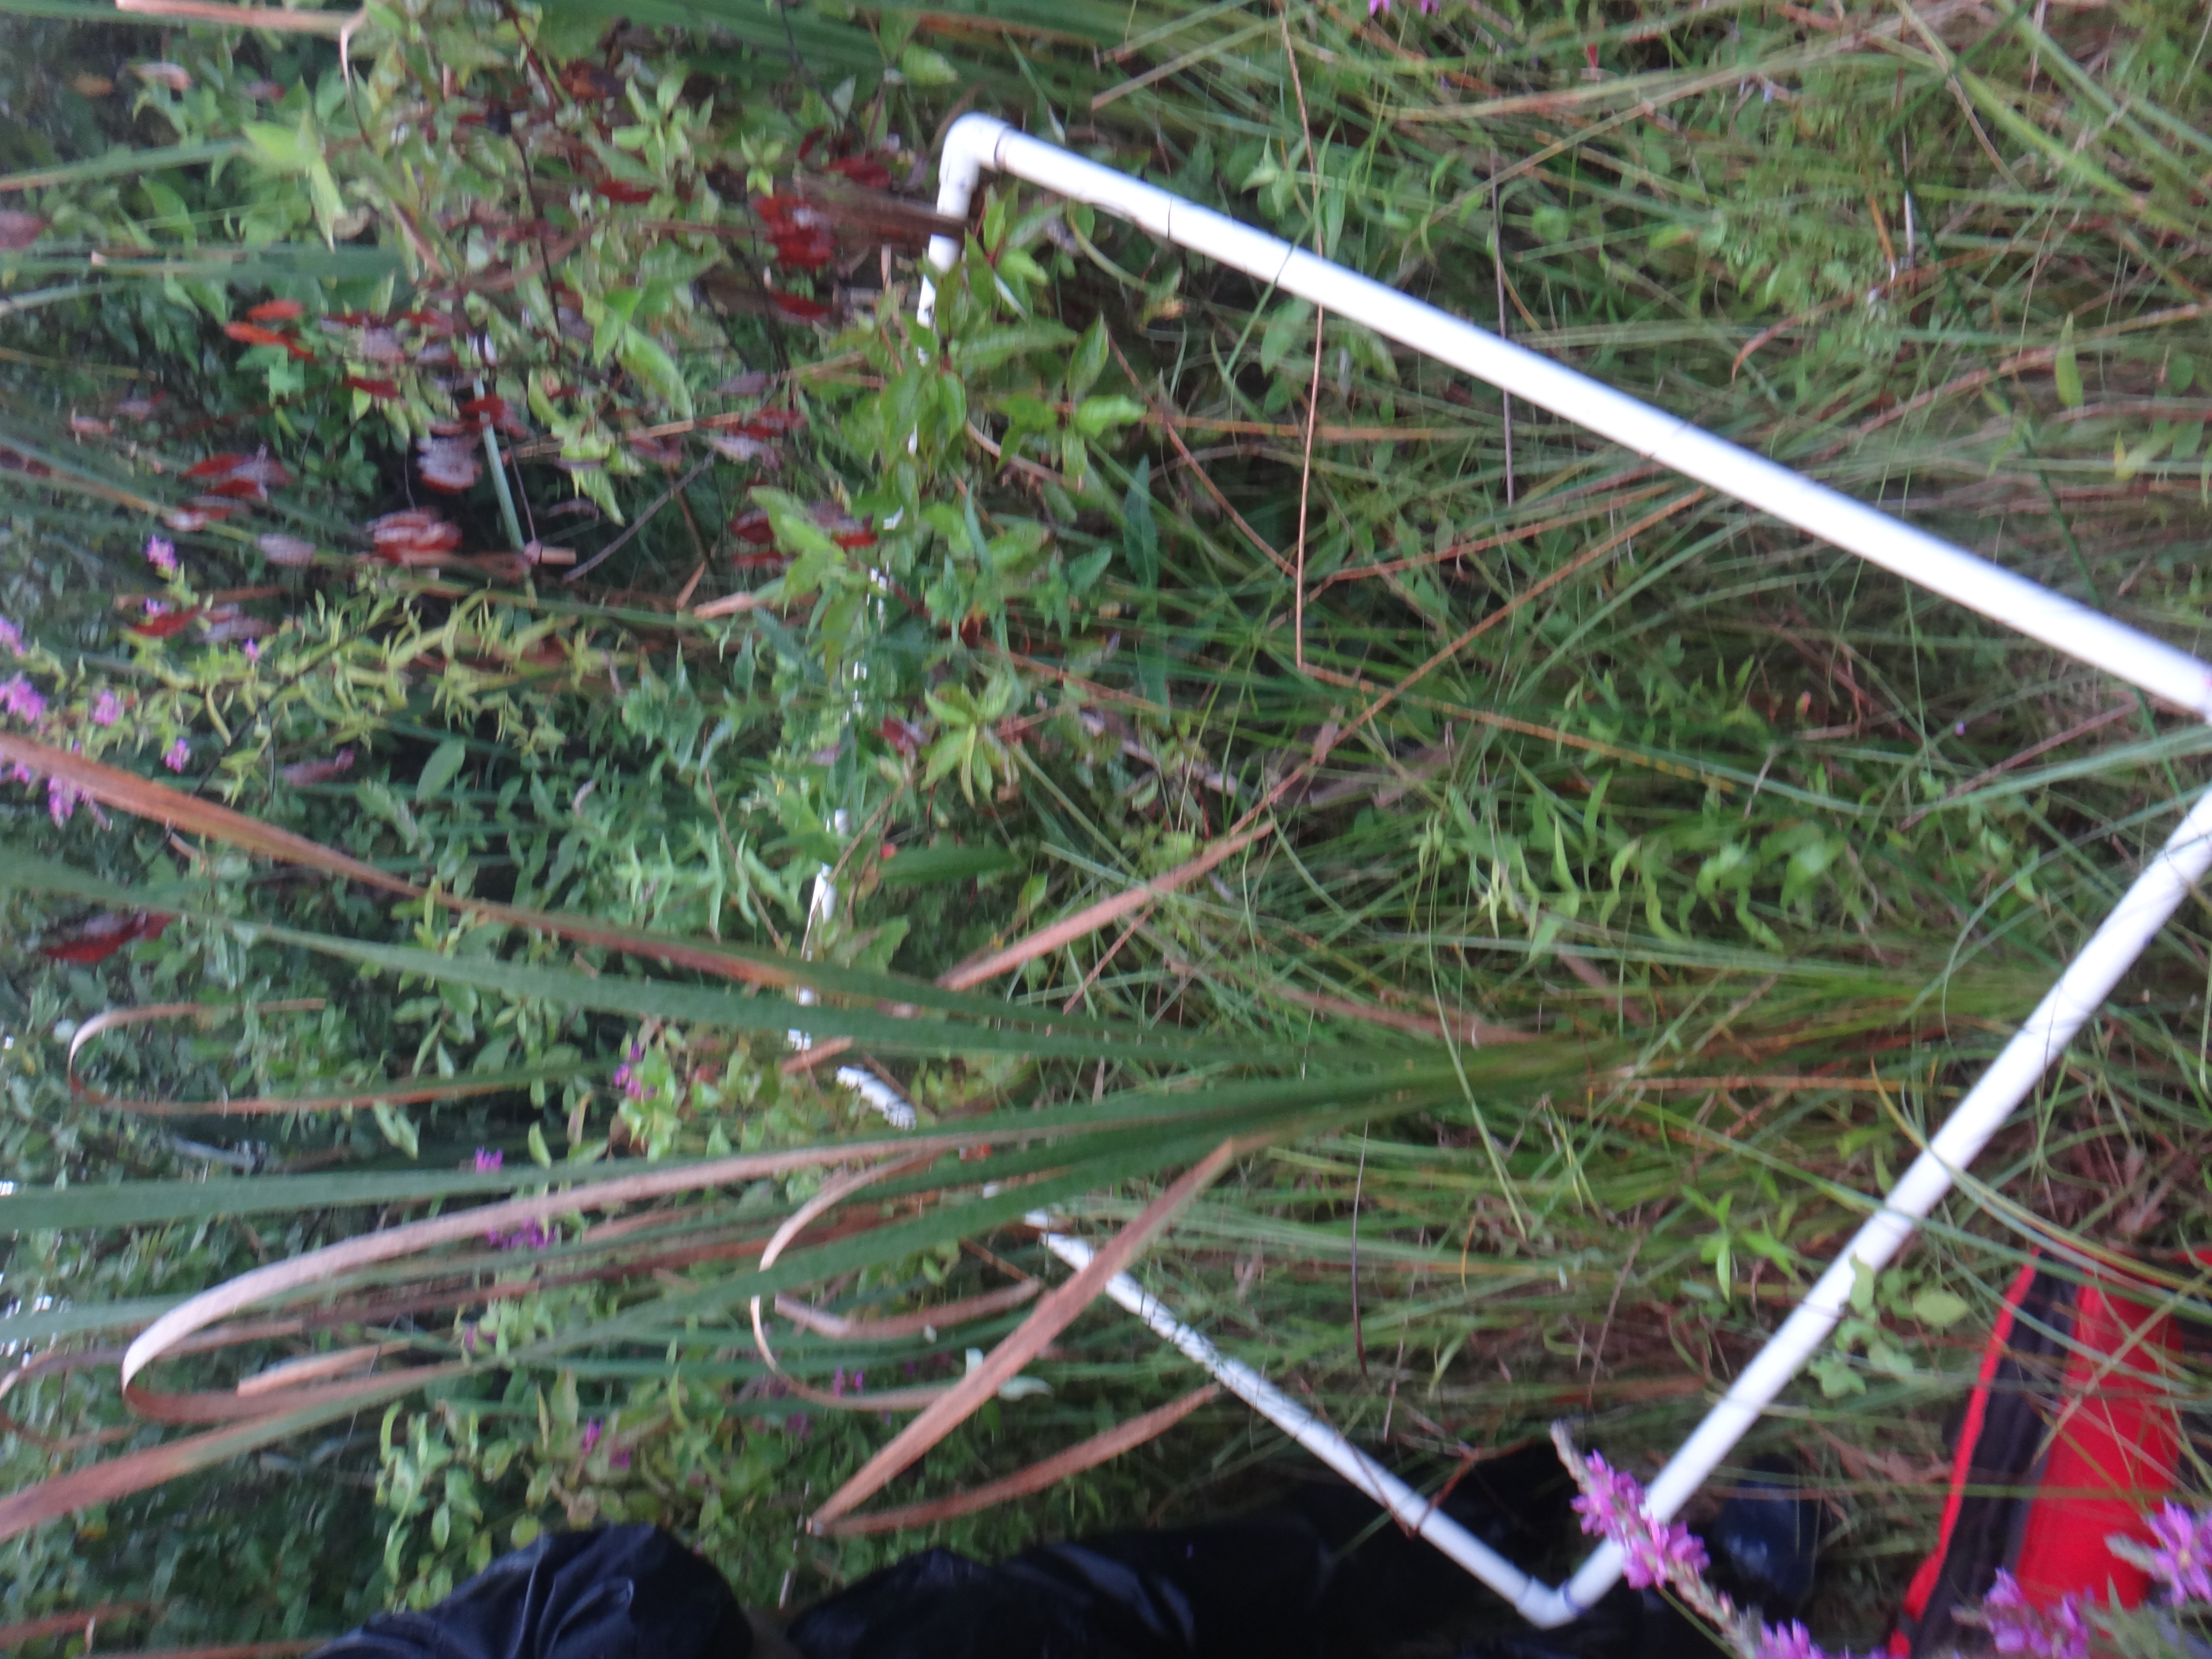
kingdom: Plantae
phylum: Tracheophyta
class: Magnoliopsida
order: Myrtales
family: Lythraceae
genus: Lythrum
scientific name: Lythrum salicaria
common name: Purple loosestrife
